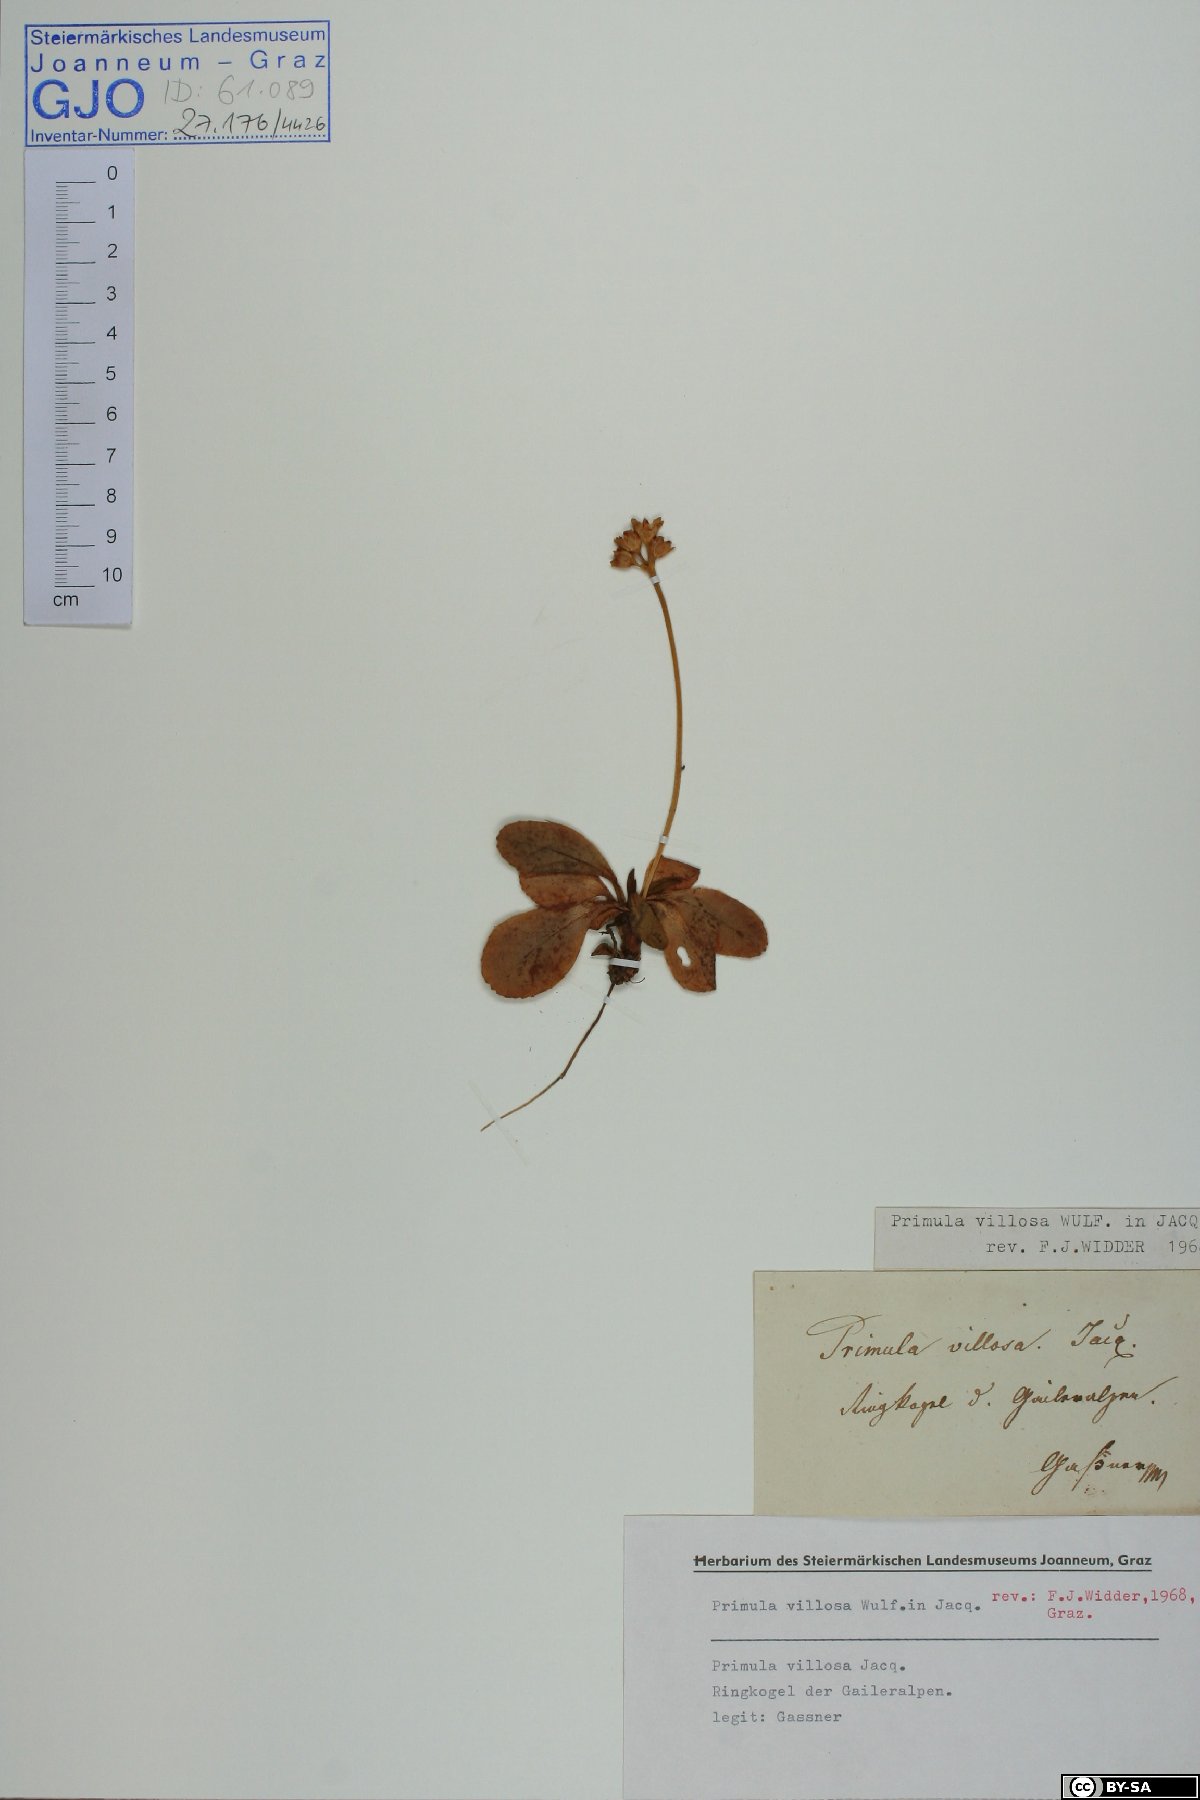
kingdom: Plantae
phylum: Tracheophyta
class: Magnoliopsida
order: Ericales
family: Primulaceae
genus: Primula
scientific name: Primula villosa
